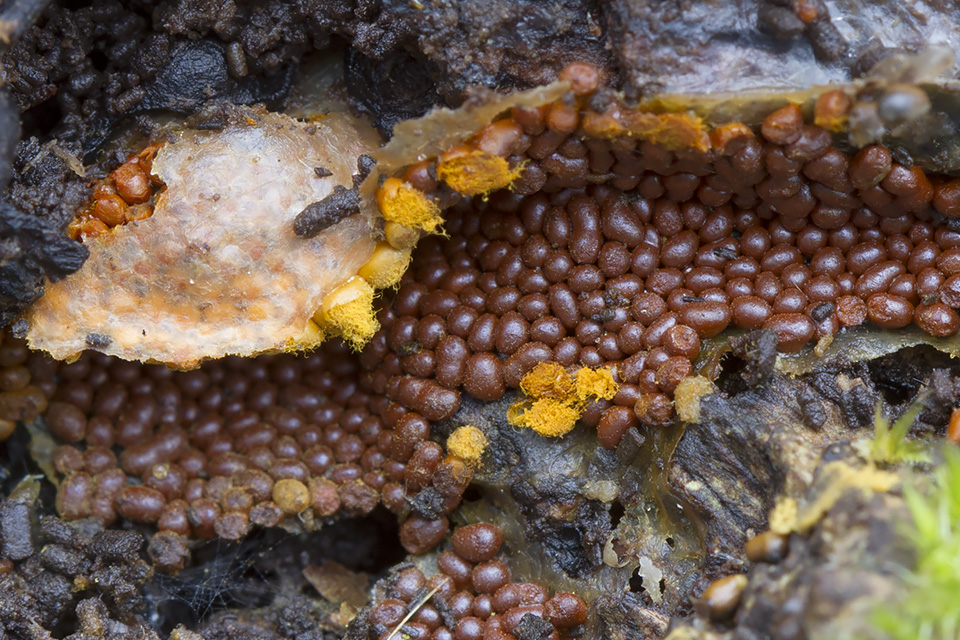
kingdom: Protozoa
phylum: Mycetozoa
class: Myxomycetes
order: Trichiales
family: Trichiaceae
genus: Trichia
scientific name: Trichia scabra
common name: tæppe-hårbold
